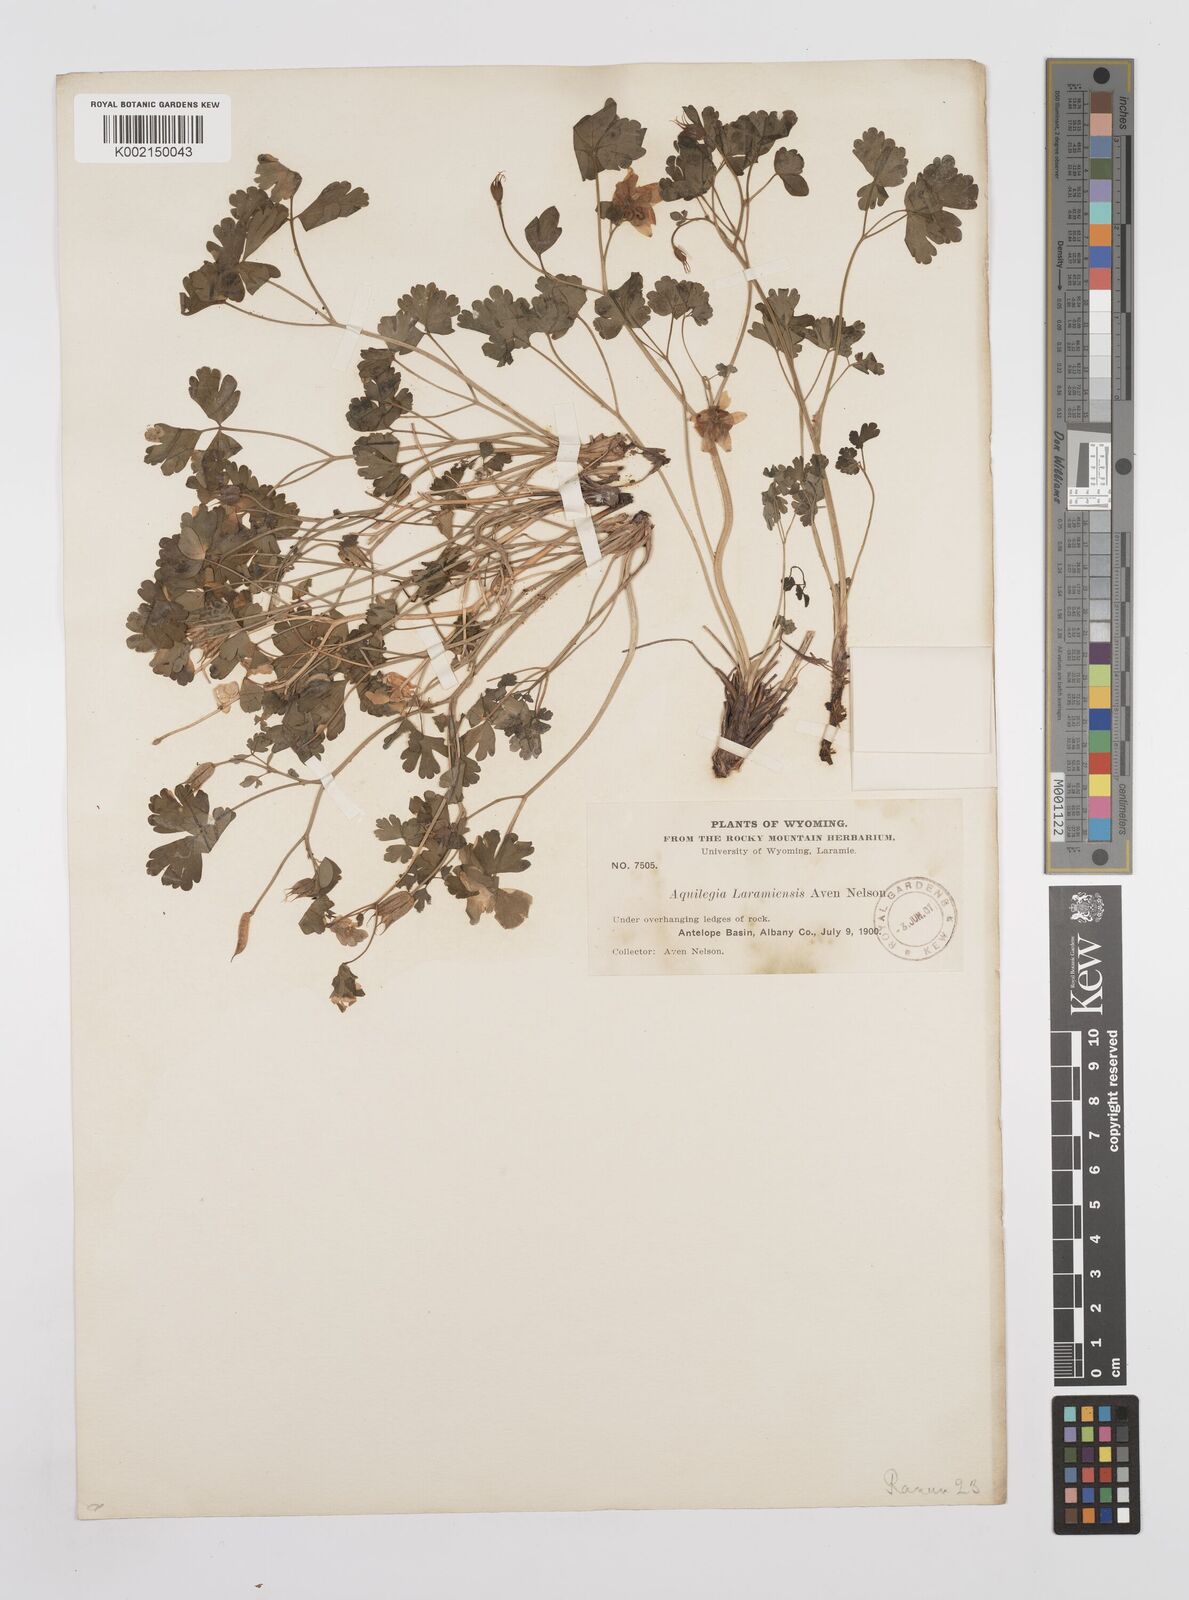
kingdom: Plantae
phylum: Tracheophyta
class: Magnoliopsida
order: Ranunculales
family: Ranunculaceae
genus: Aquilegia
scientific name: Aquilegia laramiensis
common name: Laramie columbine
